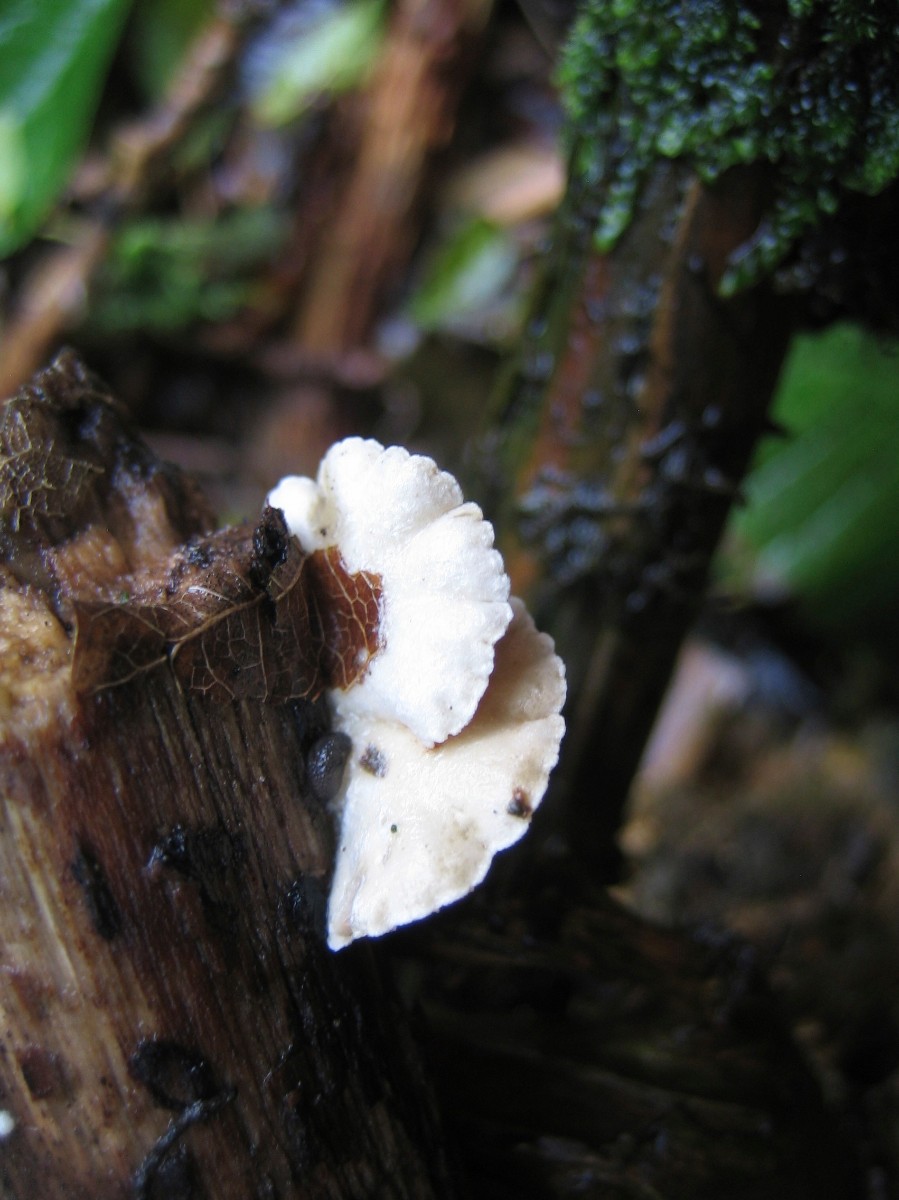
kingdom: Fungi
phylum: Basidiomycota
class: Agaricomycetes
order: Agaricales
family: Crepidotaceae
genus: Crepidotus
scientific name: Crepidotus
